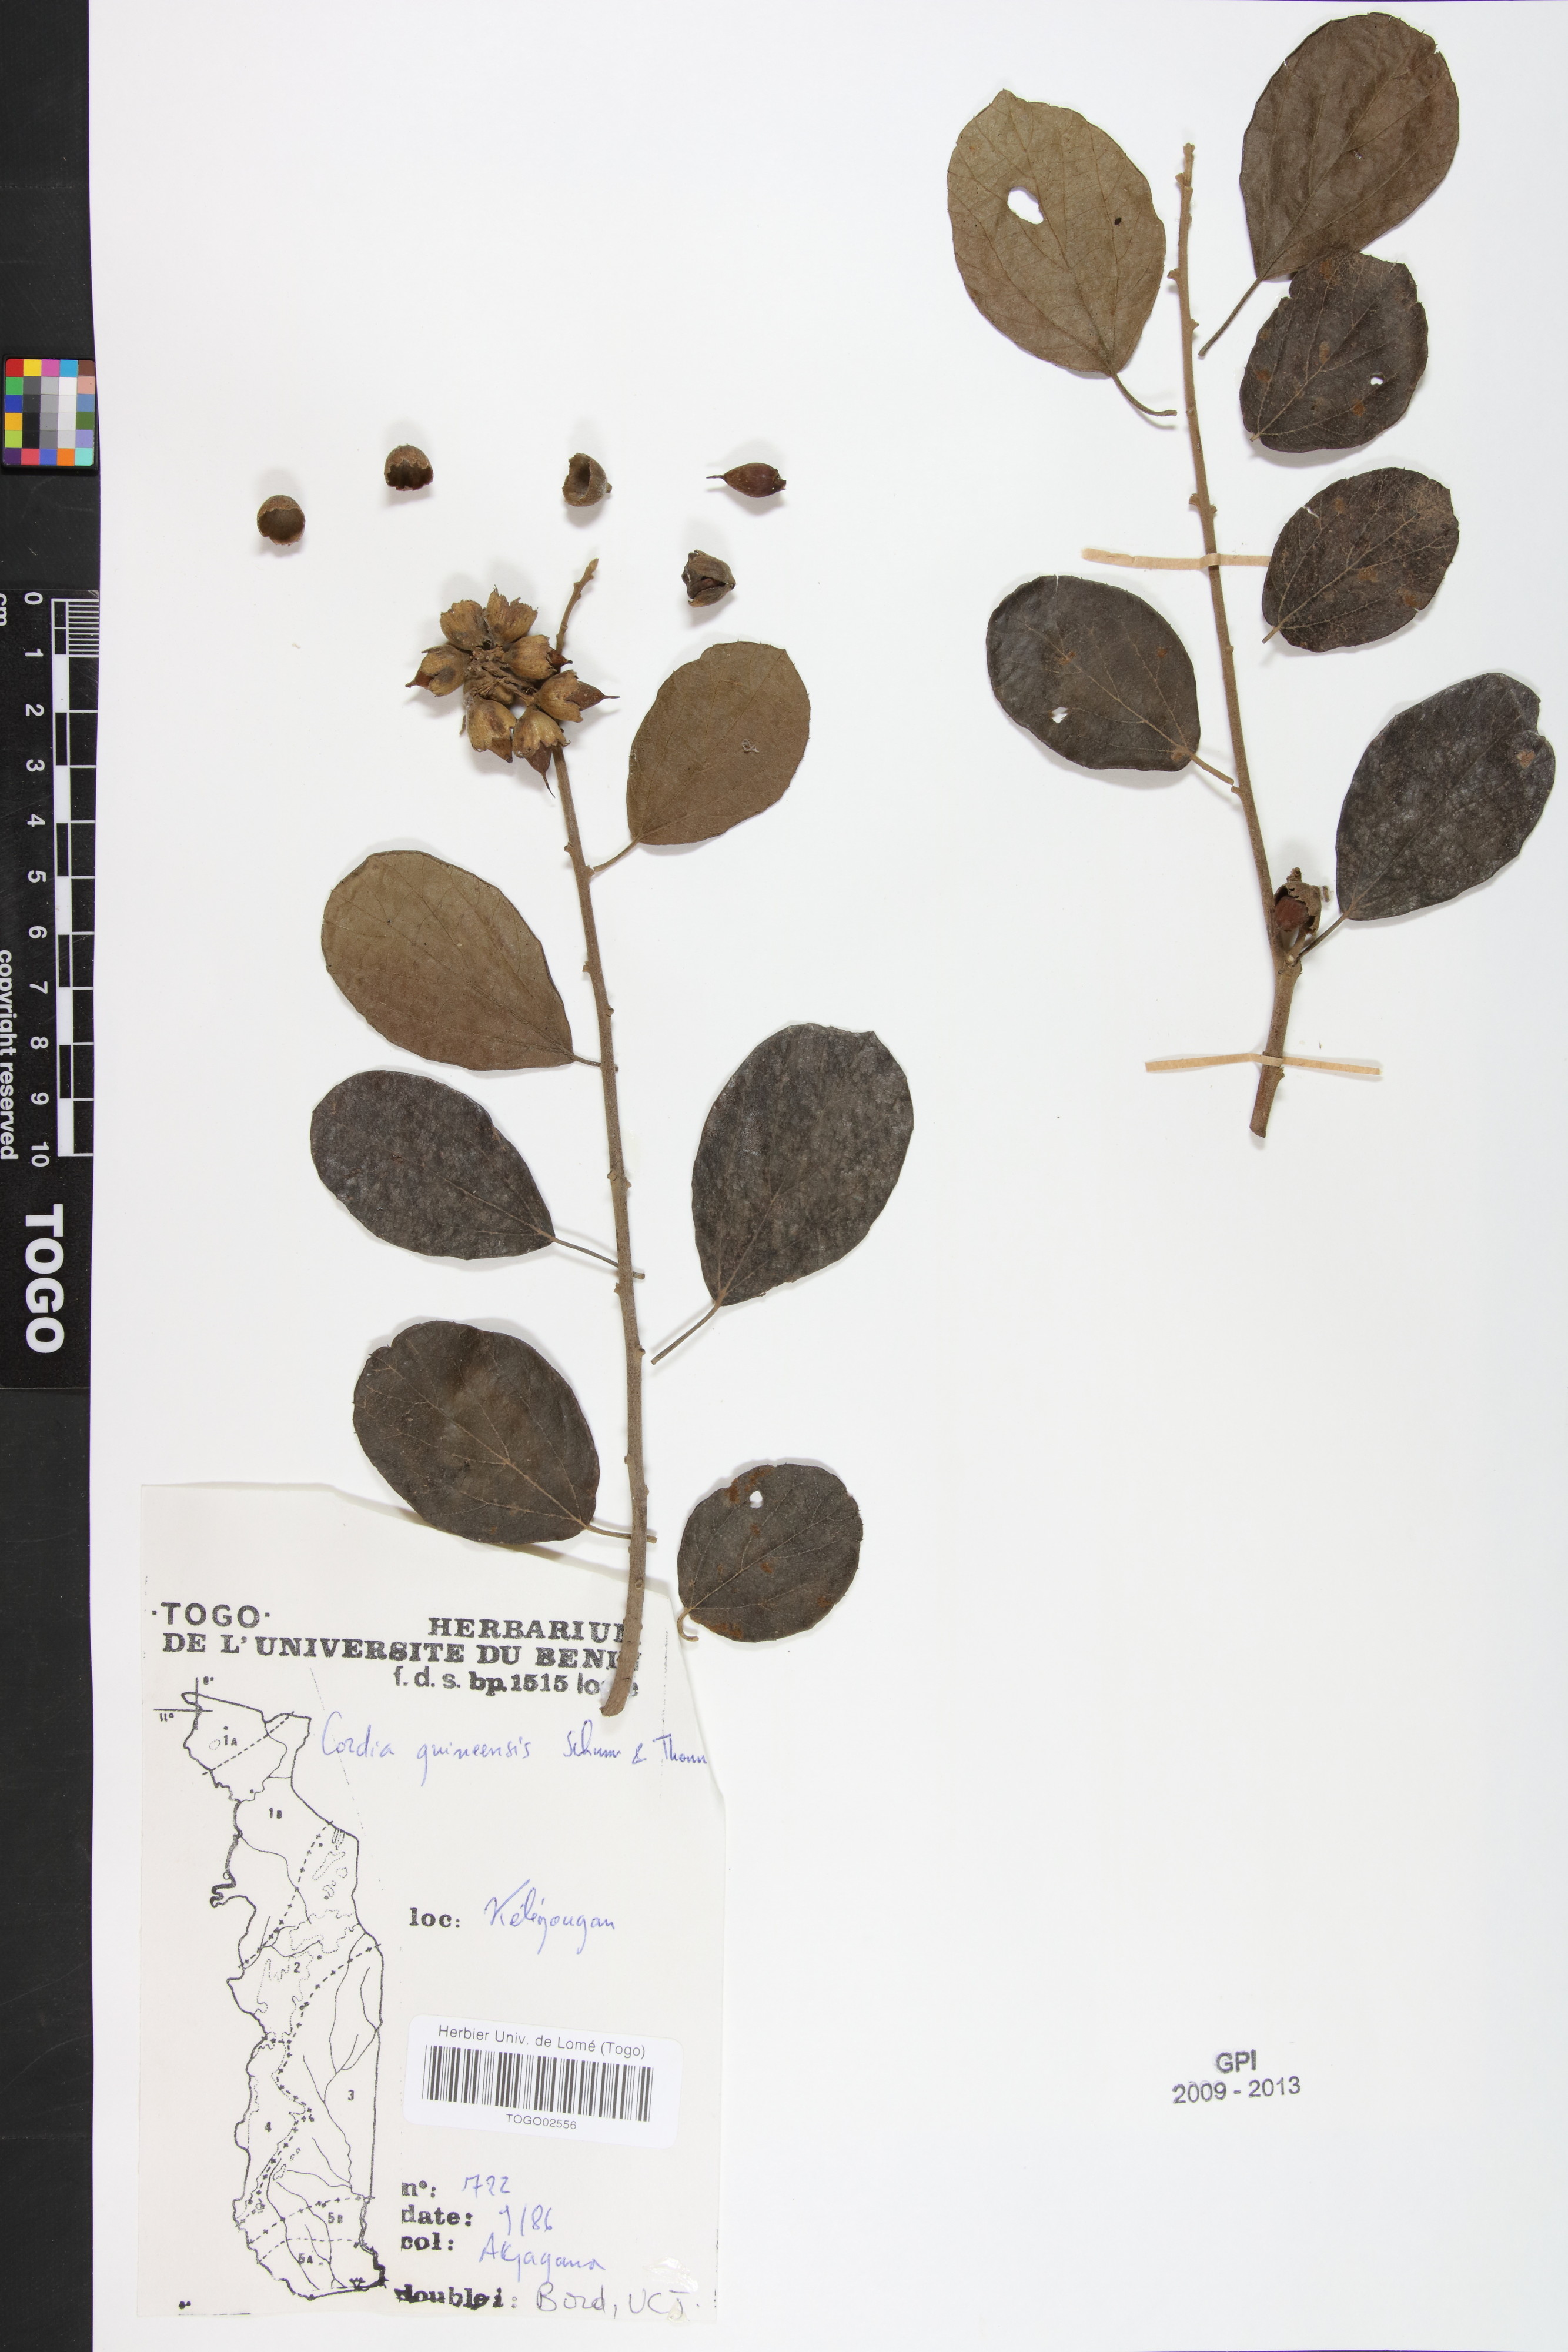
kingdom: Plantae
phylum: Tracheophyta
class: Magnoliopsida
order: Boraginales
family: Cordiaceae
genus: Cordia
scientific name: Cordia guineensis
